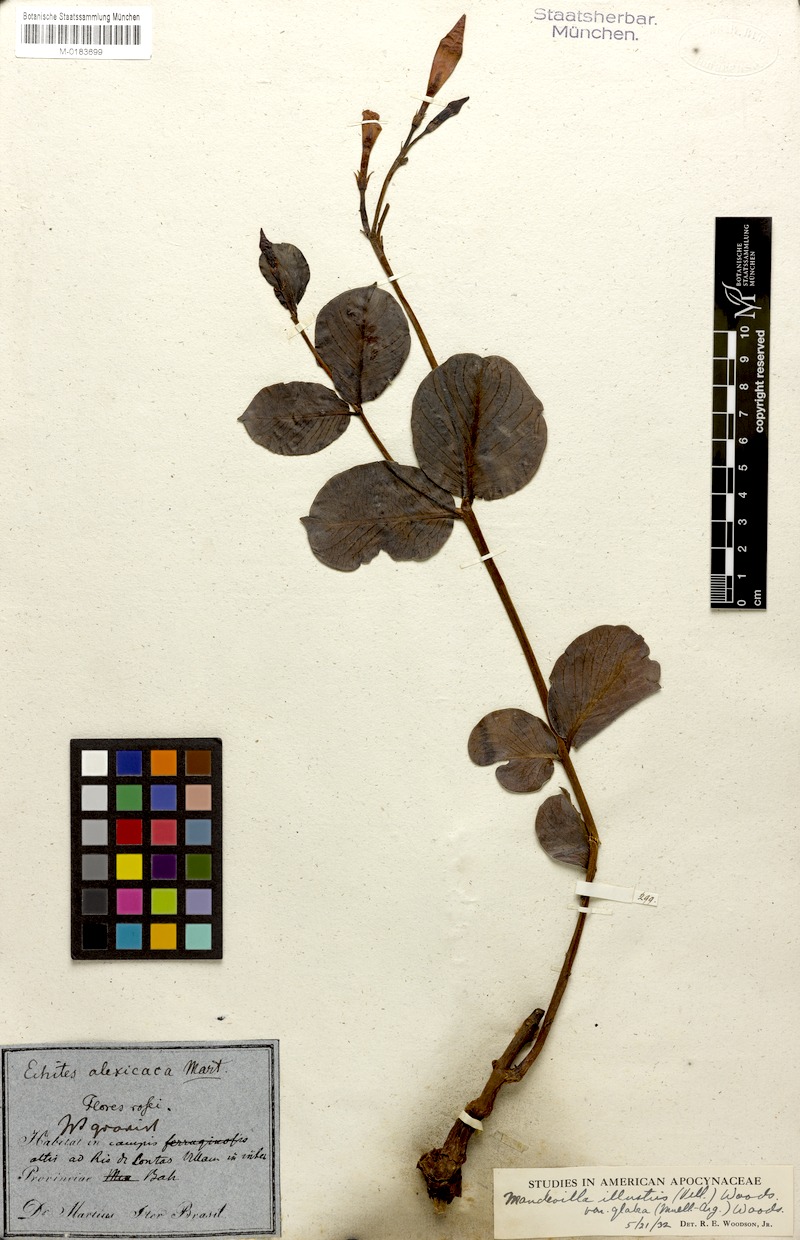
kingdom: Plantae
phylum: Tracheophyta
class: Magnoliopsida
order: Gentianales
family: Apocynaceae
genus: Mandevilla
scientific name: Mandevilla illustris
